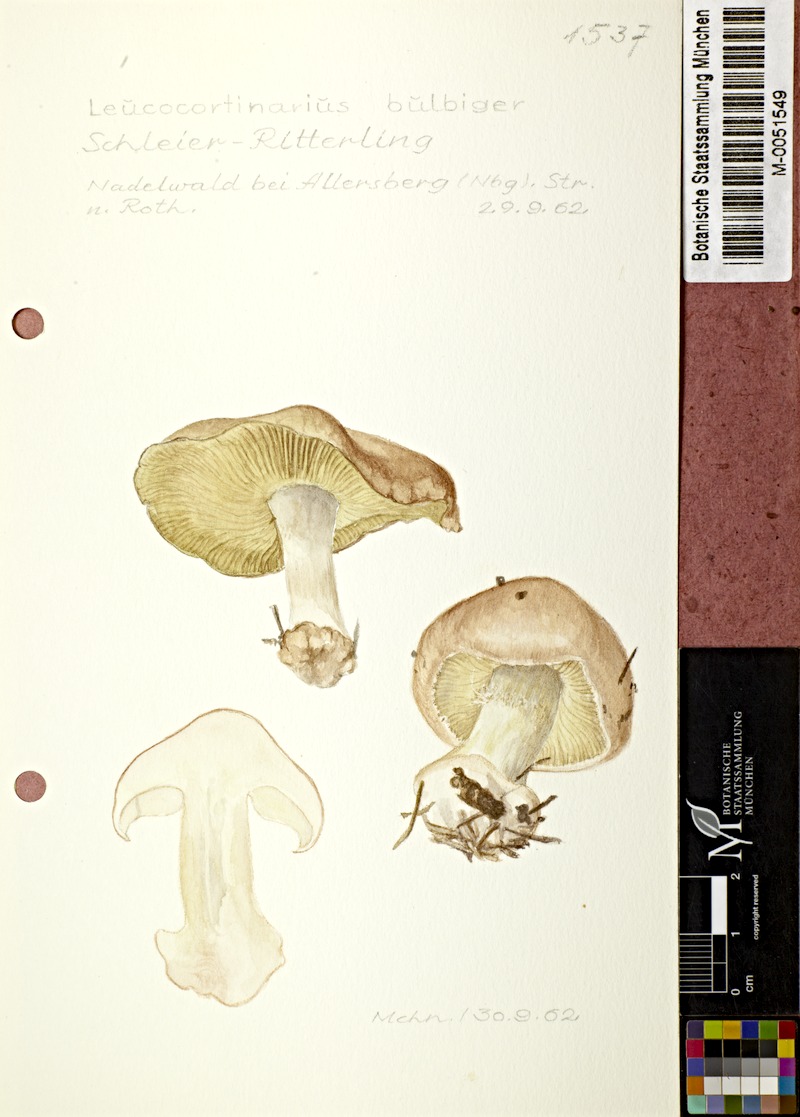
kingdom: Fungi
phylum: Basidiomycota
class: Agaricomycetes
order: Agaricales
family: Tricholomataceae
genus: Leucocortinarius
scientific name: Leucocortinarius bulbiger
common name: White webcap
